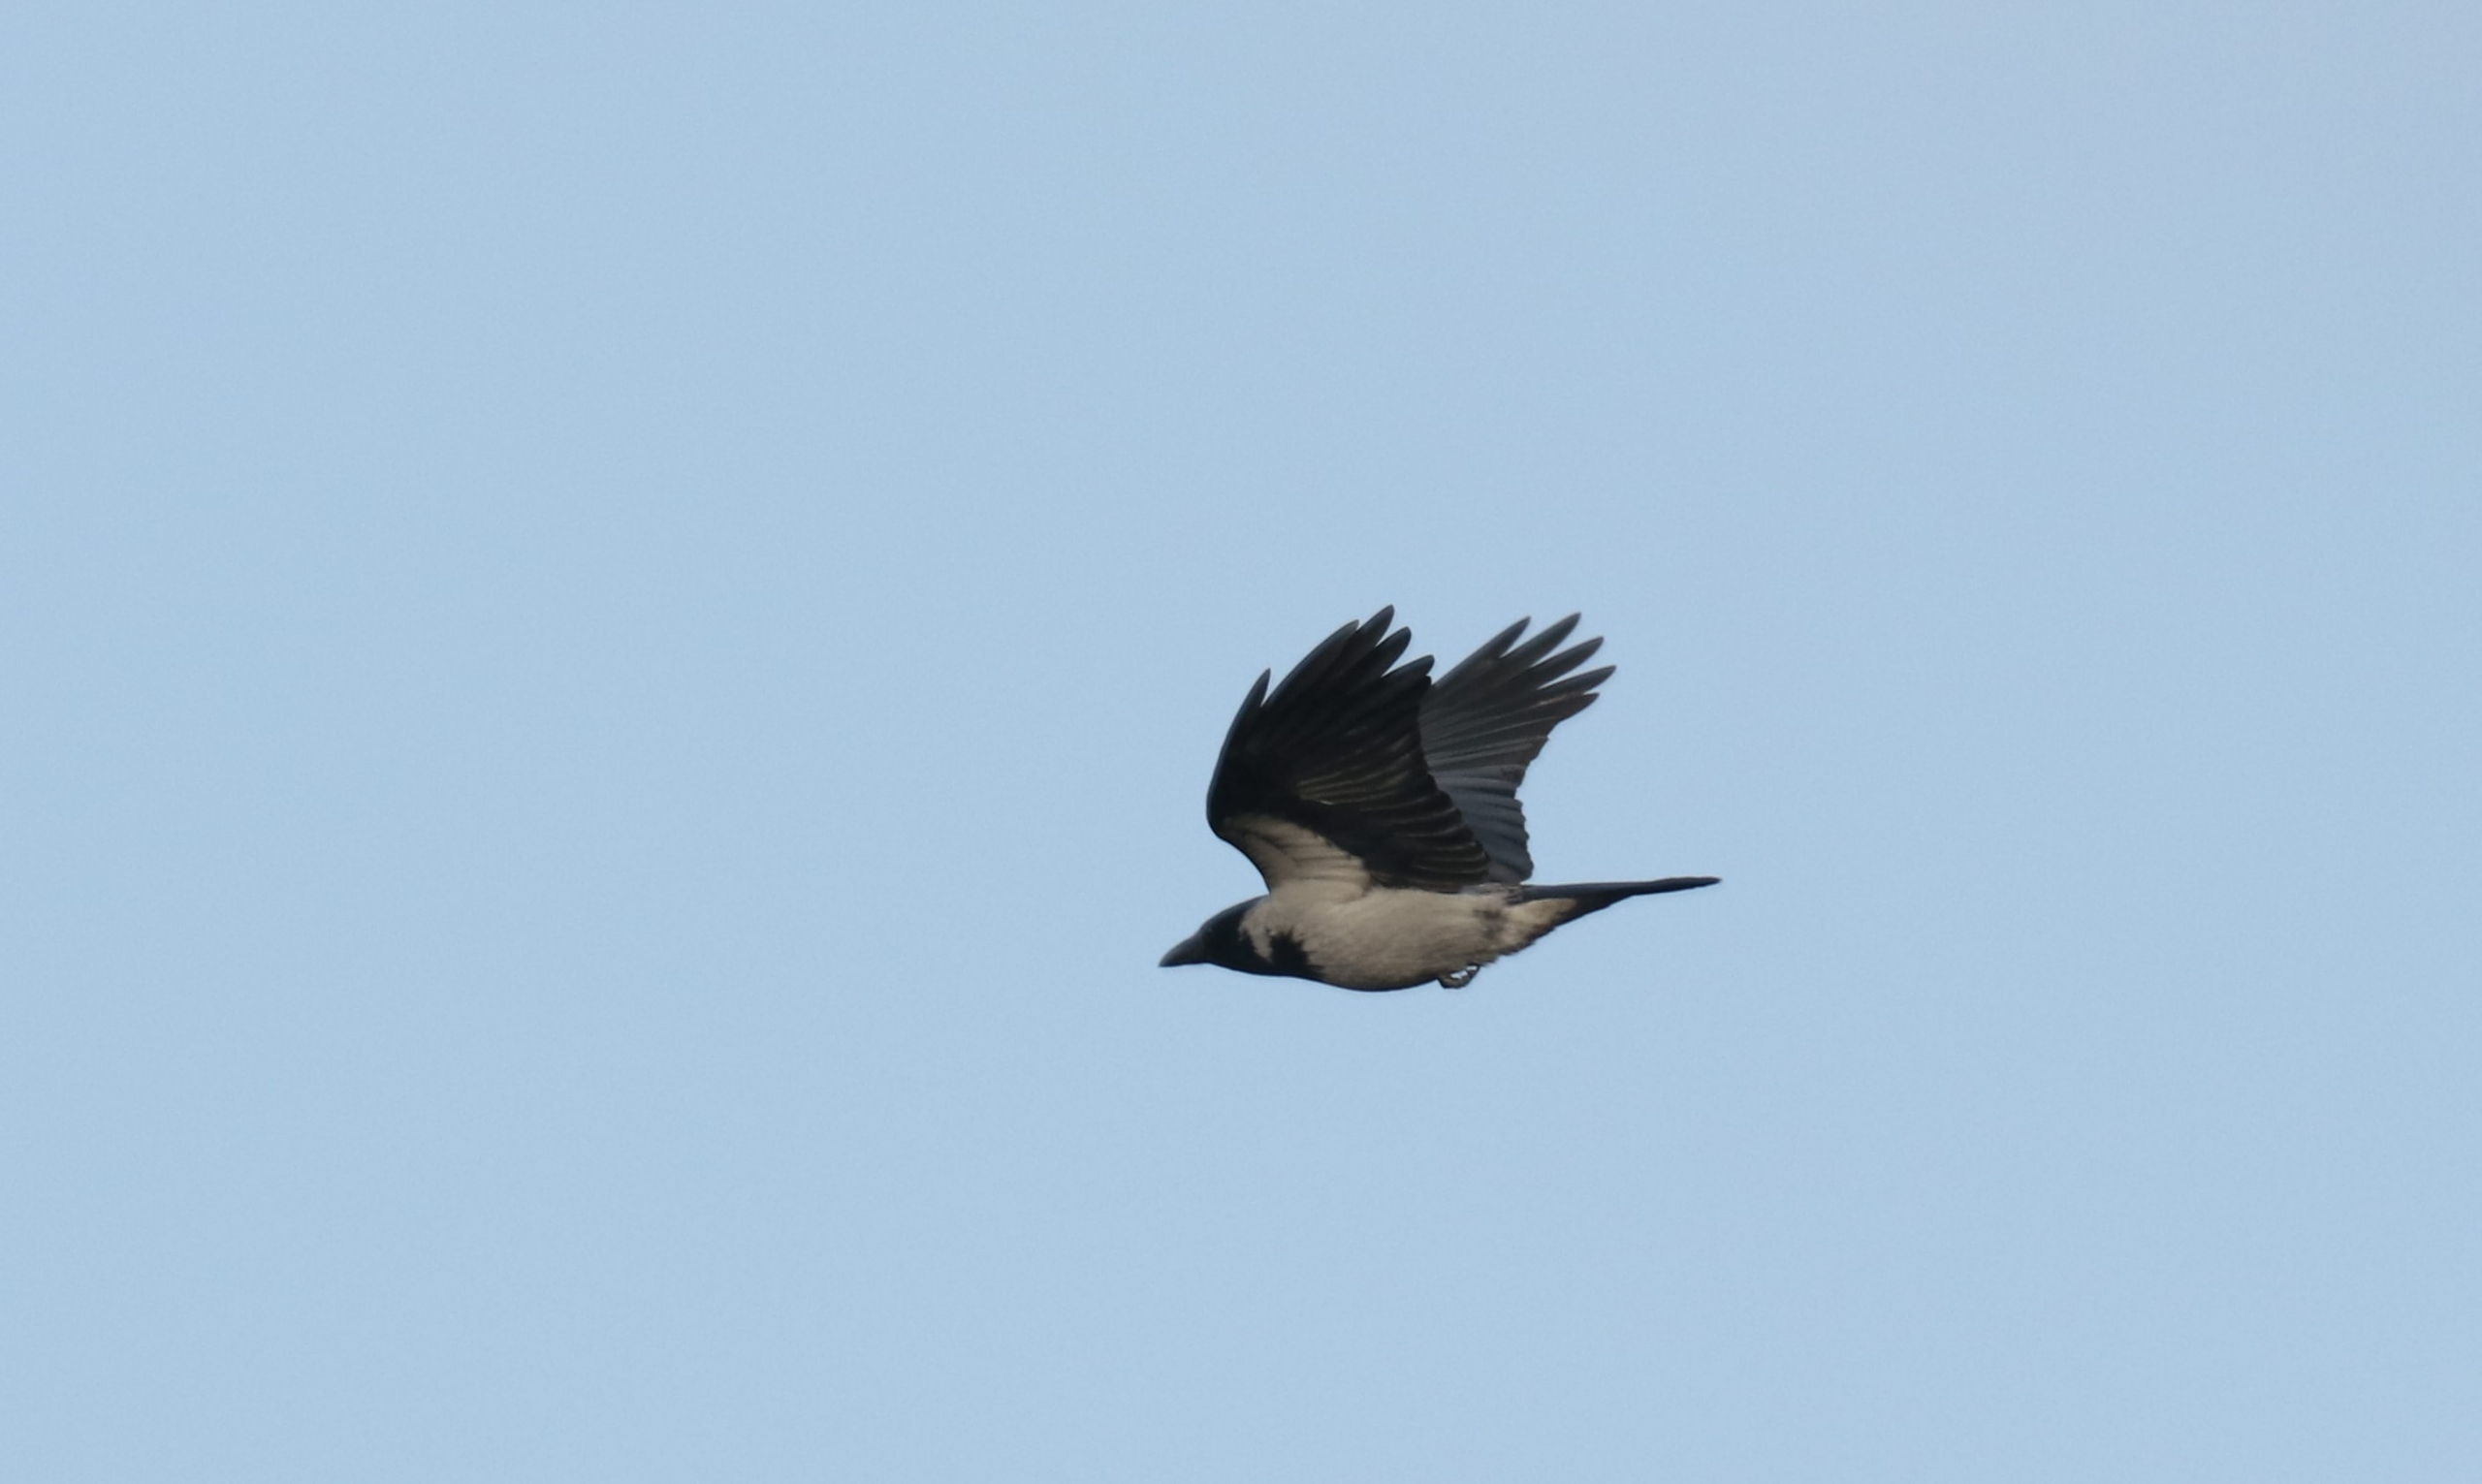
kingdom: Animalia
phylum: Chordata
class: Aves
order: Passeriformes
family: Corvidae
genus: Corvus
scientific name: Corvus cornix
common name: Gråkrage
